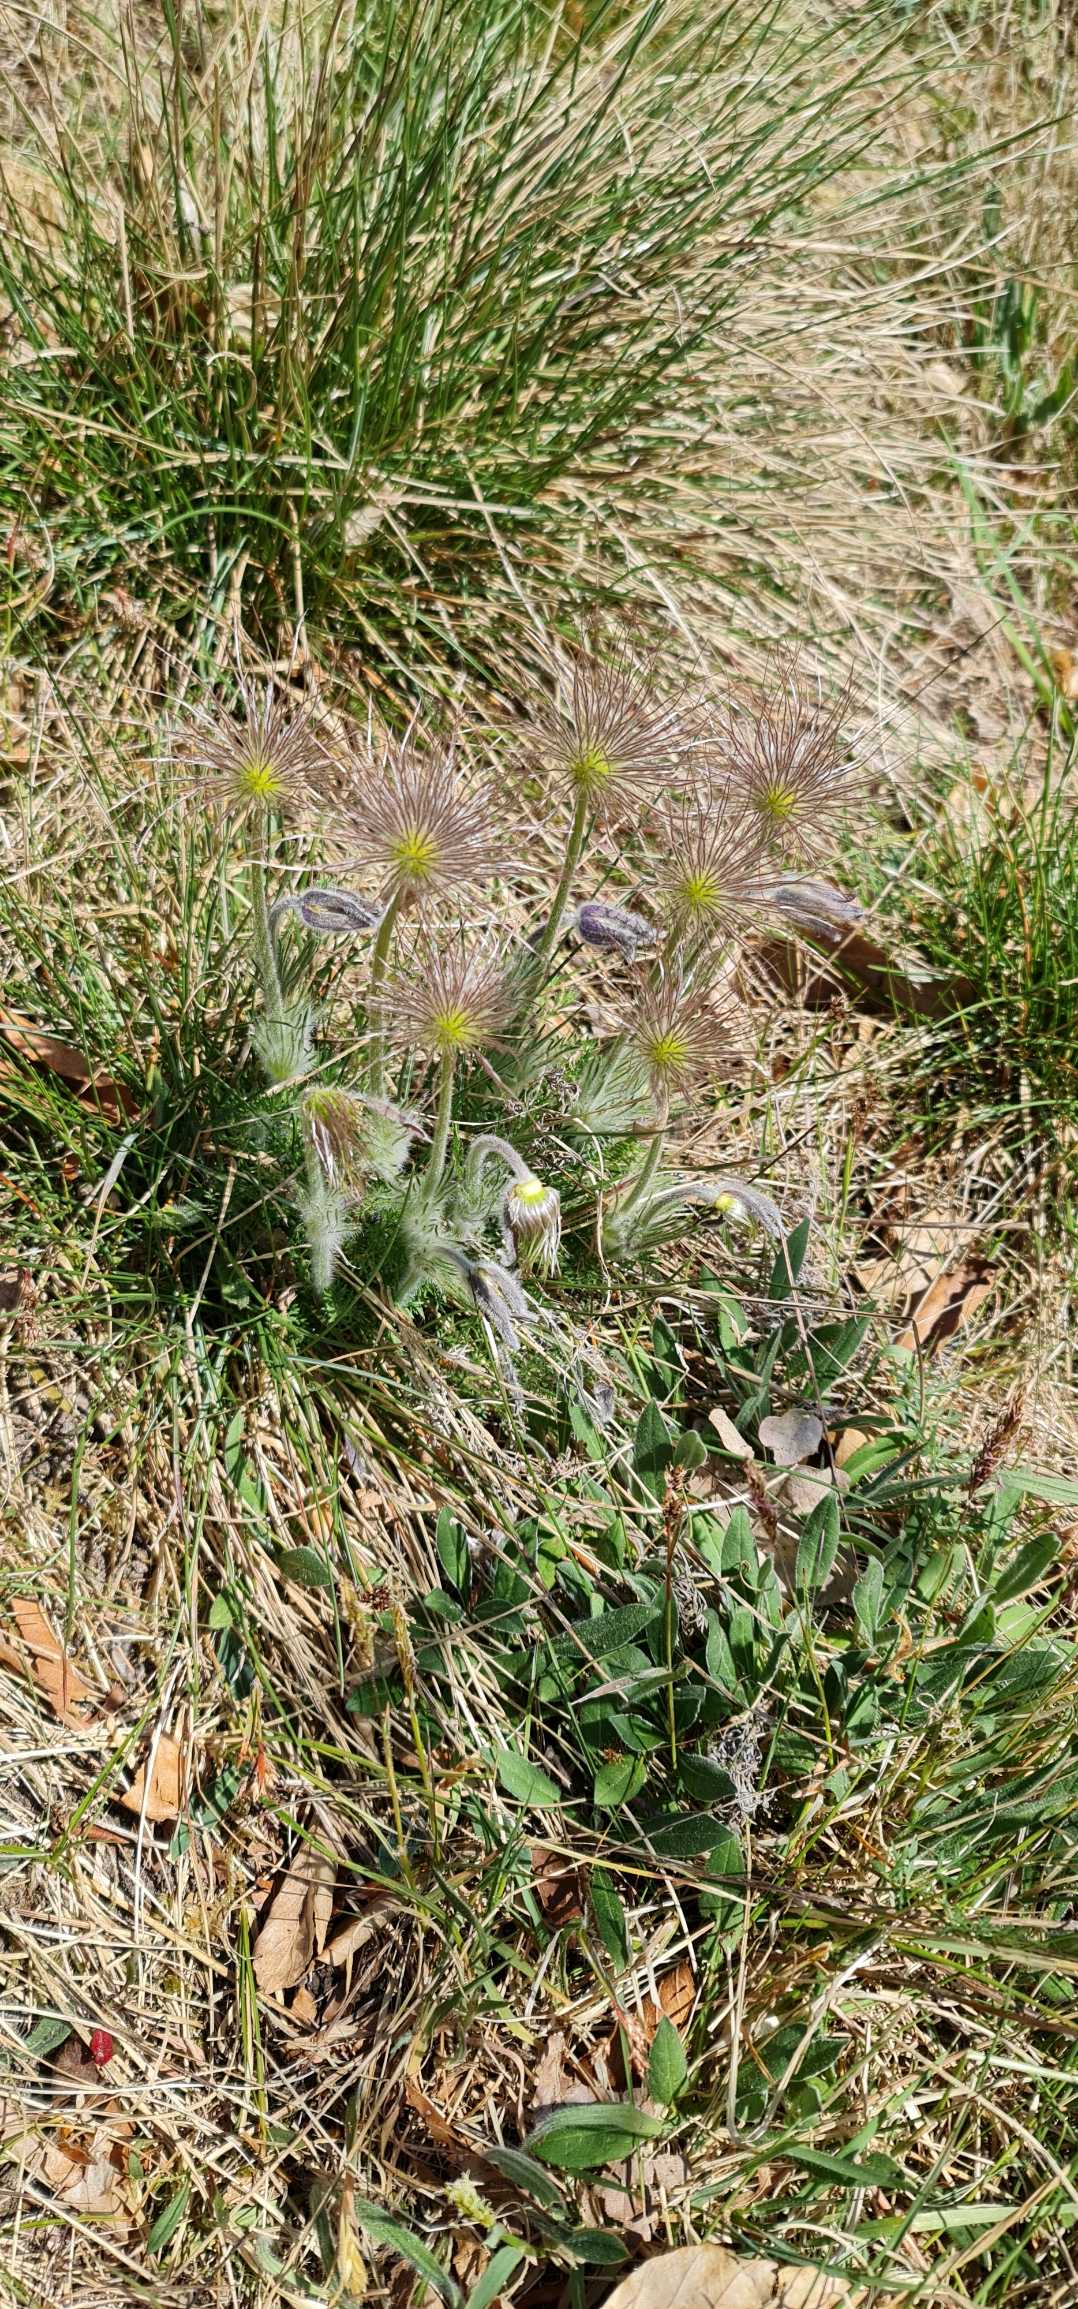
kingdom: Plantae
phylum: Tracheophyta
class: Magnoliopsida
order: Ranunculales
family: Ranunculaceae
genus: Pulsatilla
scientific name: Pulsatilla vulgaris
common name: Opret kobjælde
